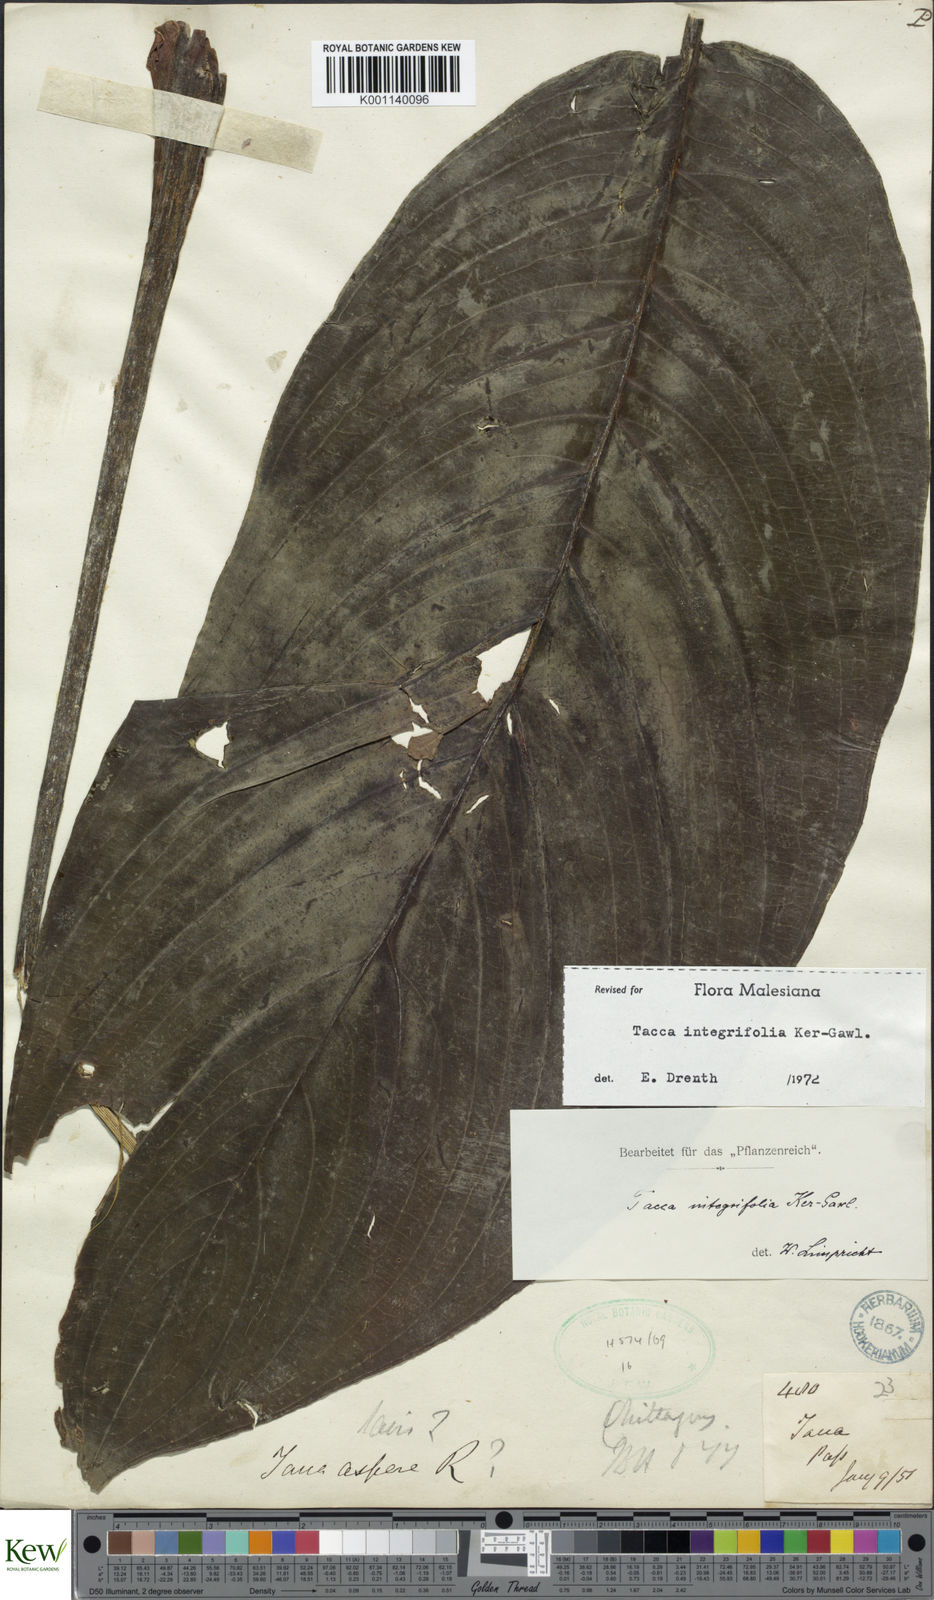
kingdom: Plantae
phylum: Tracheophyta
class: Liliopsida
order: Dioscoreales
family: Dioscoreaceae
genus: Tacca
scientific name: Tacca integrifolia
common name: Batplant
